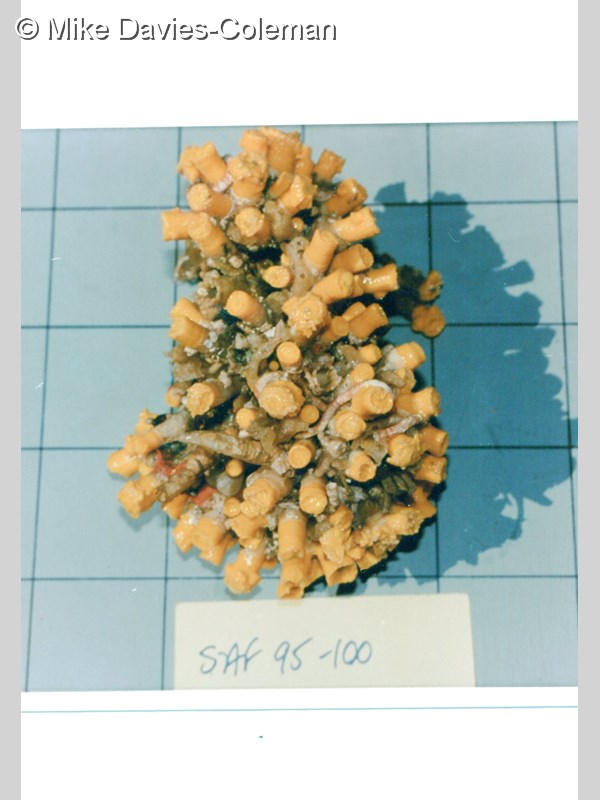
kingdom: Animalia
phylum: Cnidaria
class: Anthozoa
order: Scleractinia
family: Dendrophylliidae
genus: Dendrophyllia
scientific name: Dendrophyllia
